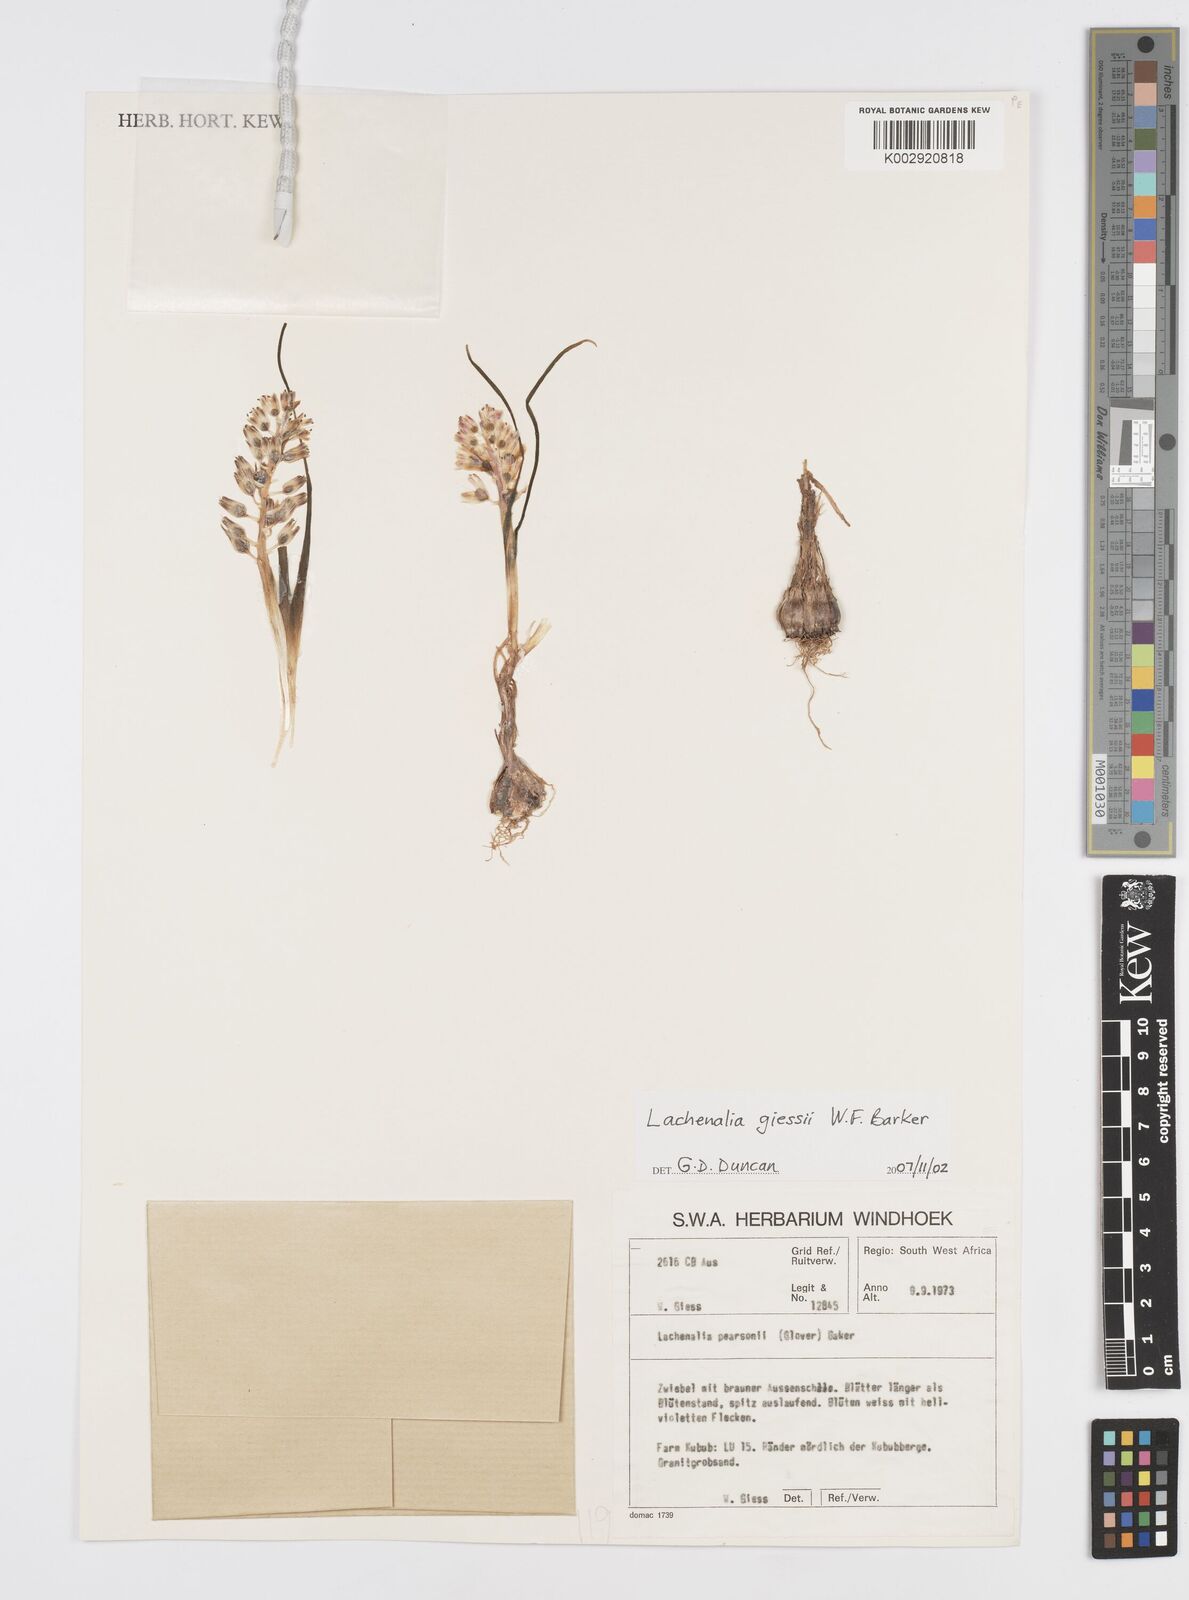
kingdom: Plantae
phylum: Tracheophyta
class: Liliopsida
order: Asparagales
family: Asparagaceae
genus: Lachenalia
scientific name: Lachenalia giessii
